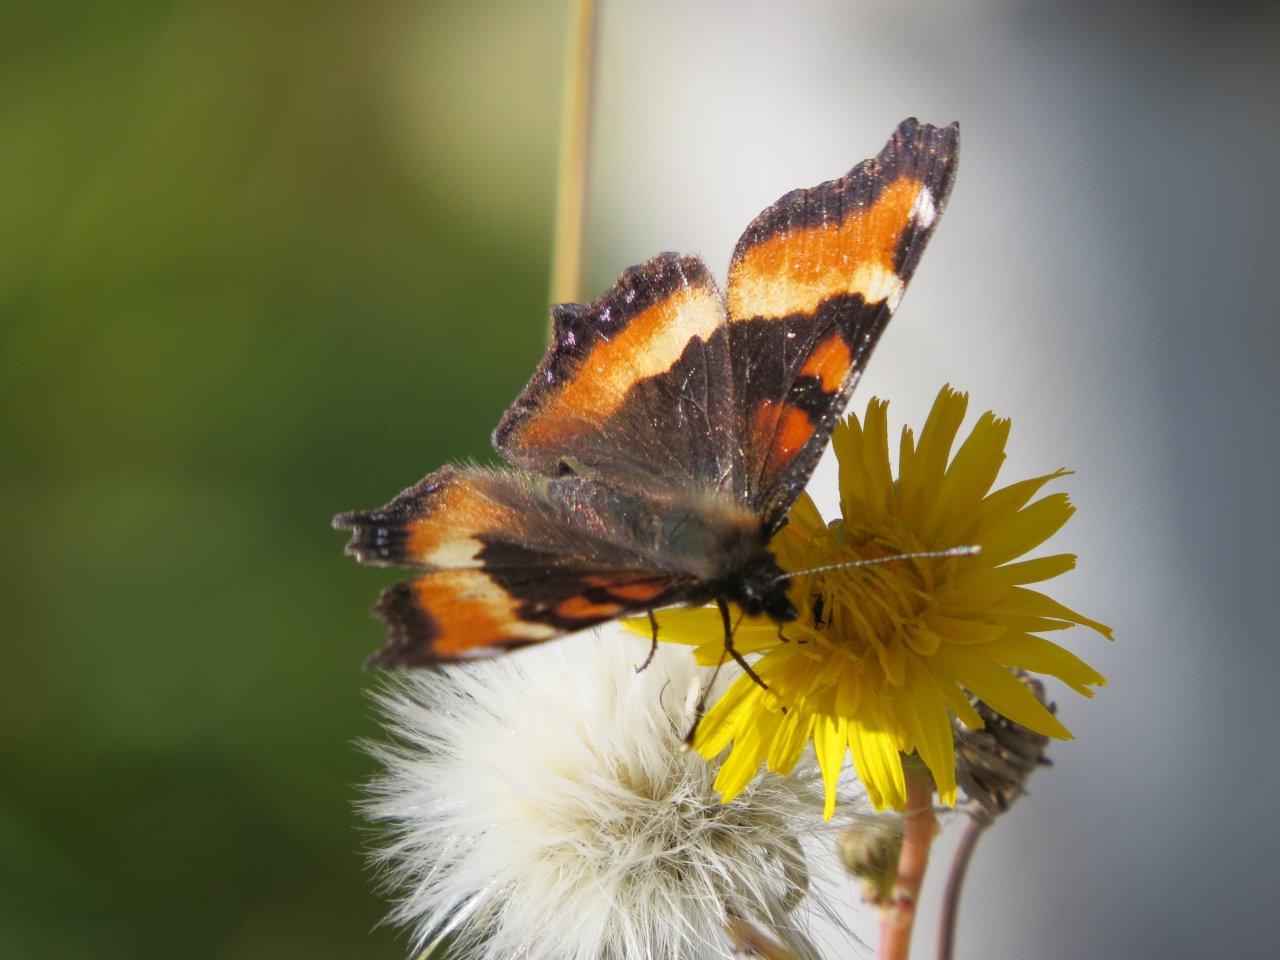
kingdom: Animalia
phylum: Arthropoda
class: Insecta
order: Lepidoptera
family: Nymphalidae
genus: Aglais
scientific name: Aglais milberti
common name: Milbert's Tortoiseshell
